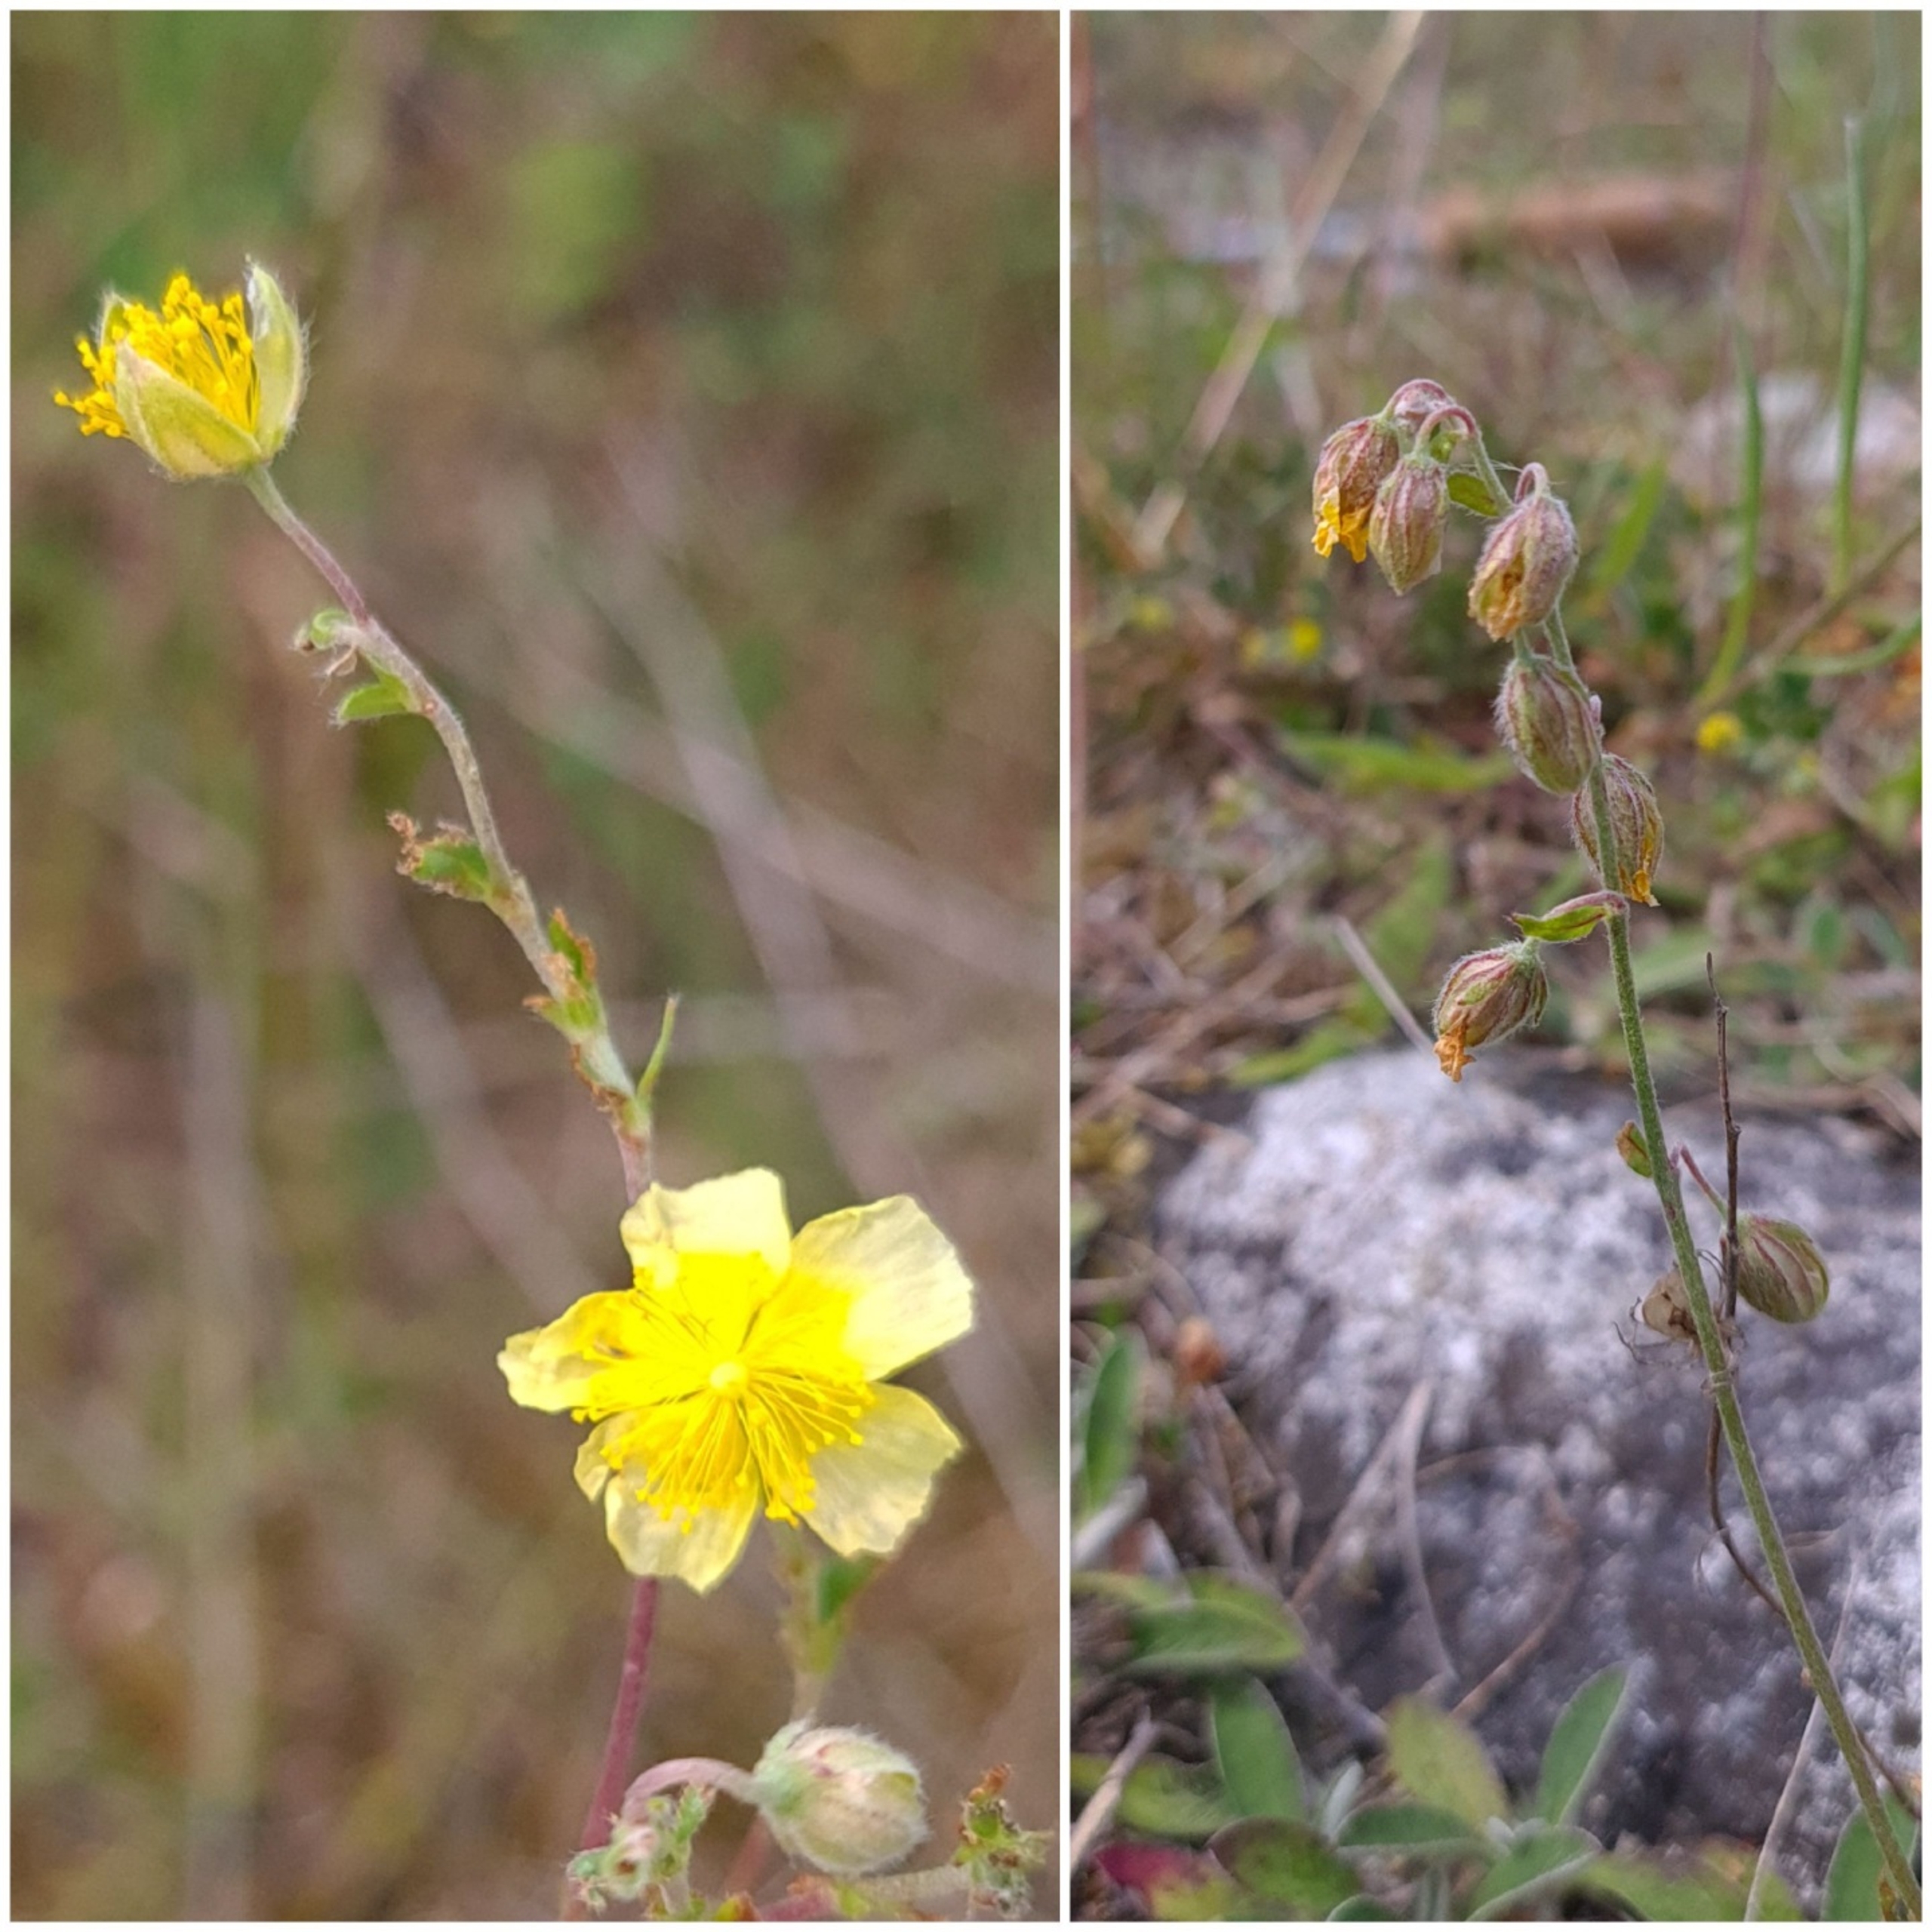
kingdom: Plantae
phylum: Tracheophyta
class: Magnoliopsida
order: Malvales
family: Cistaceae
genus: Helianthemum
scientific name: Helianthemum nummularium
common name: Bakke-soløje
